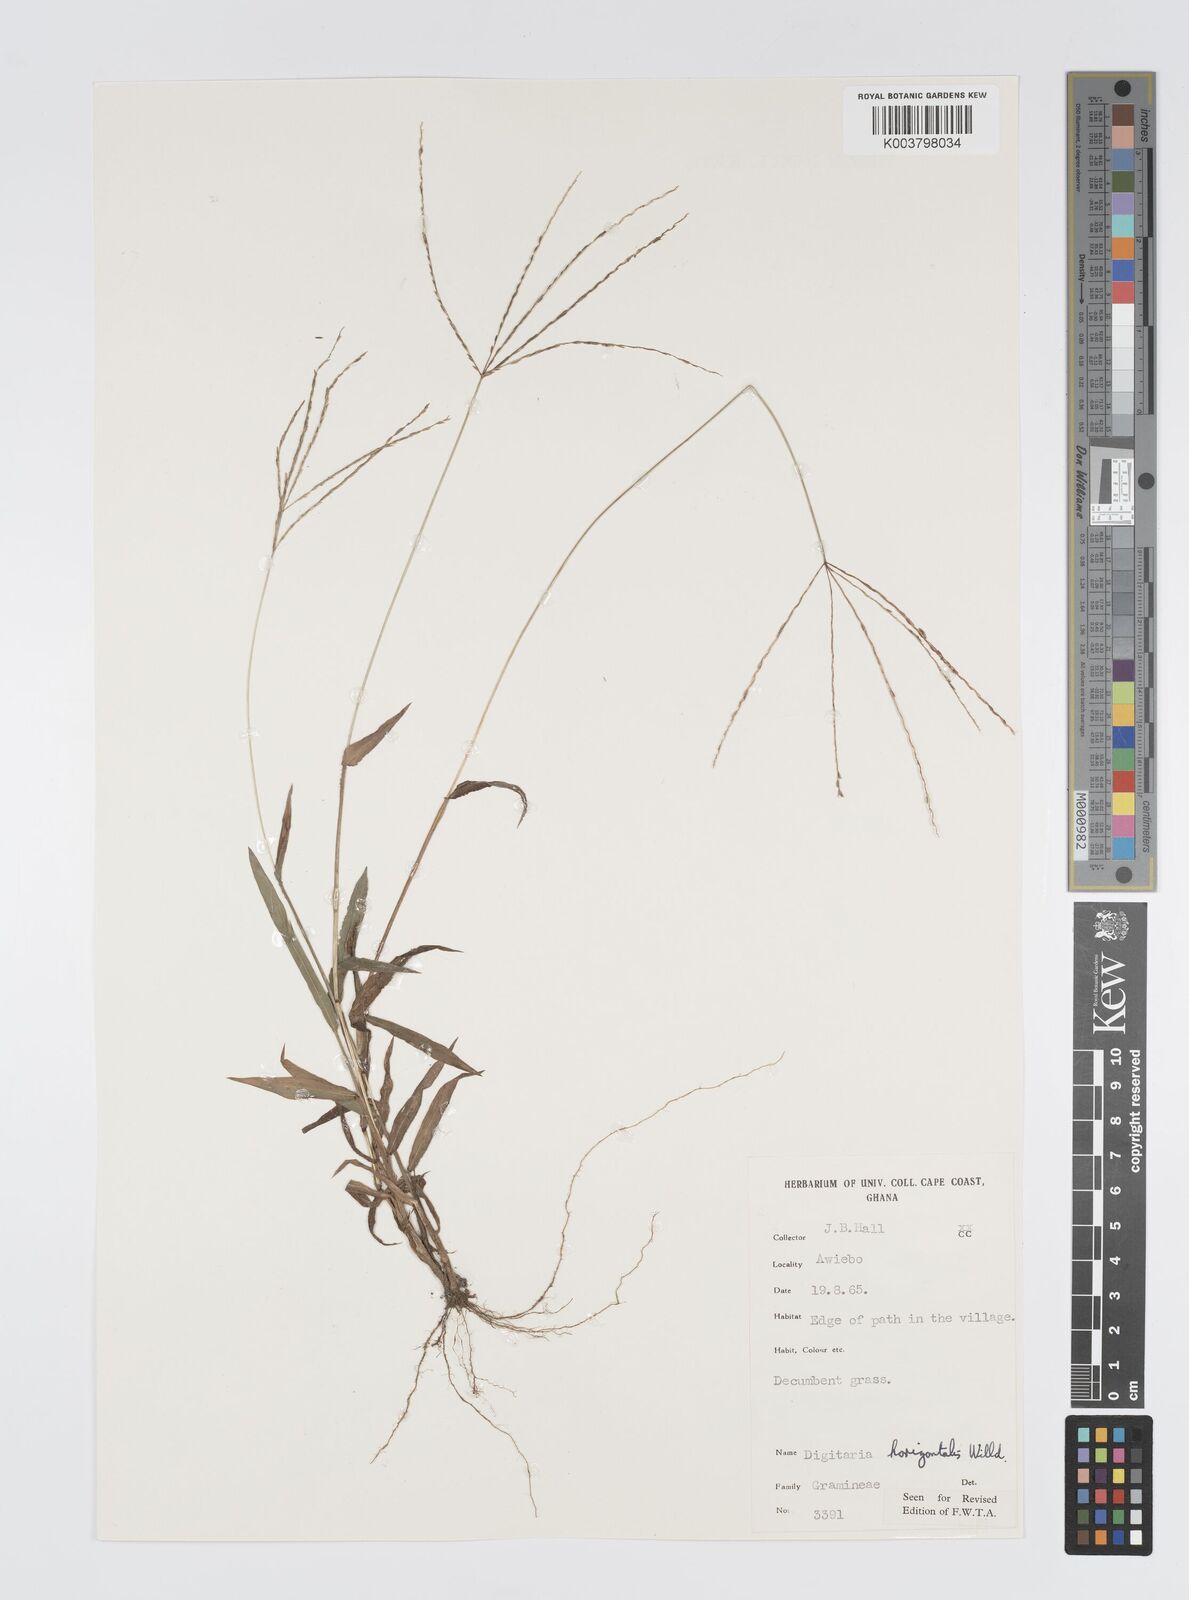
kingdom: Plantae
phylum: Tracheophyta
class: Liliopsida
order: Poales
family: Poaceae
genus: Digitaria
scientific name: Digitaria horizontalis
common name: Jamaican crabgrass
